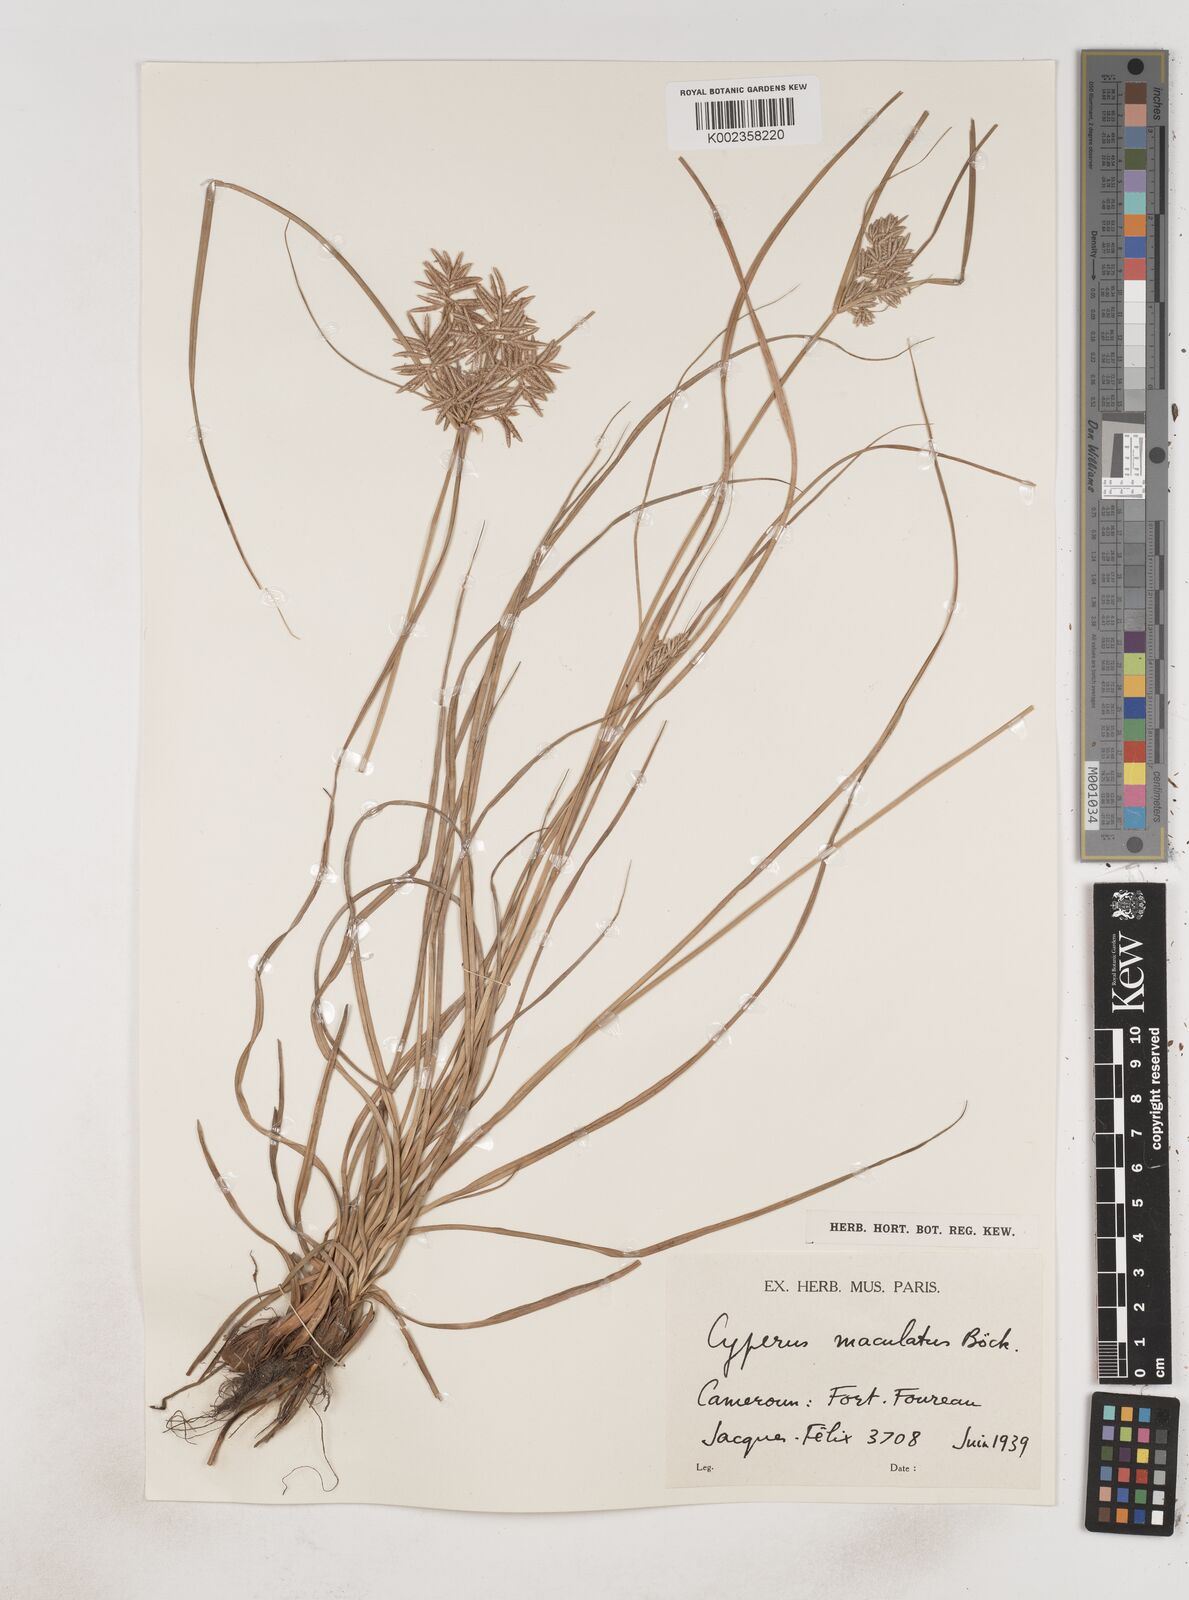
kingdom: Plantae
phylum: Tracheophyta
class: Liliopsida
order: Poales
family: Cyperaceae
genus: Cyperus
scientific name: Cyperus maculatus
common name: Maculated sedge
